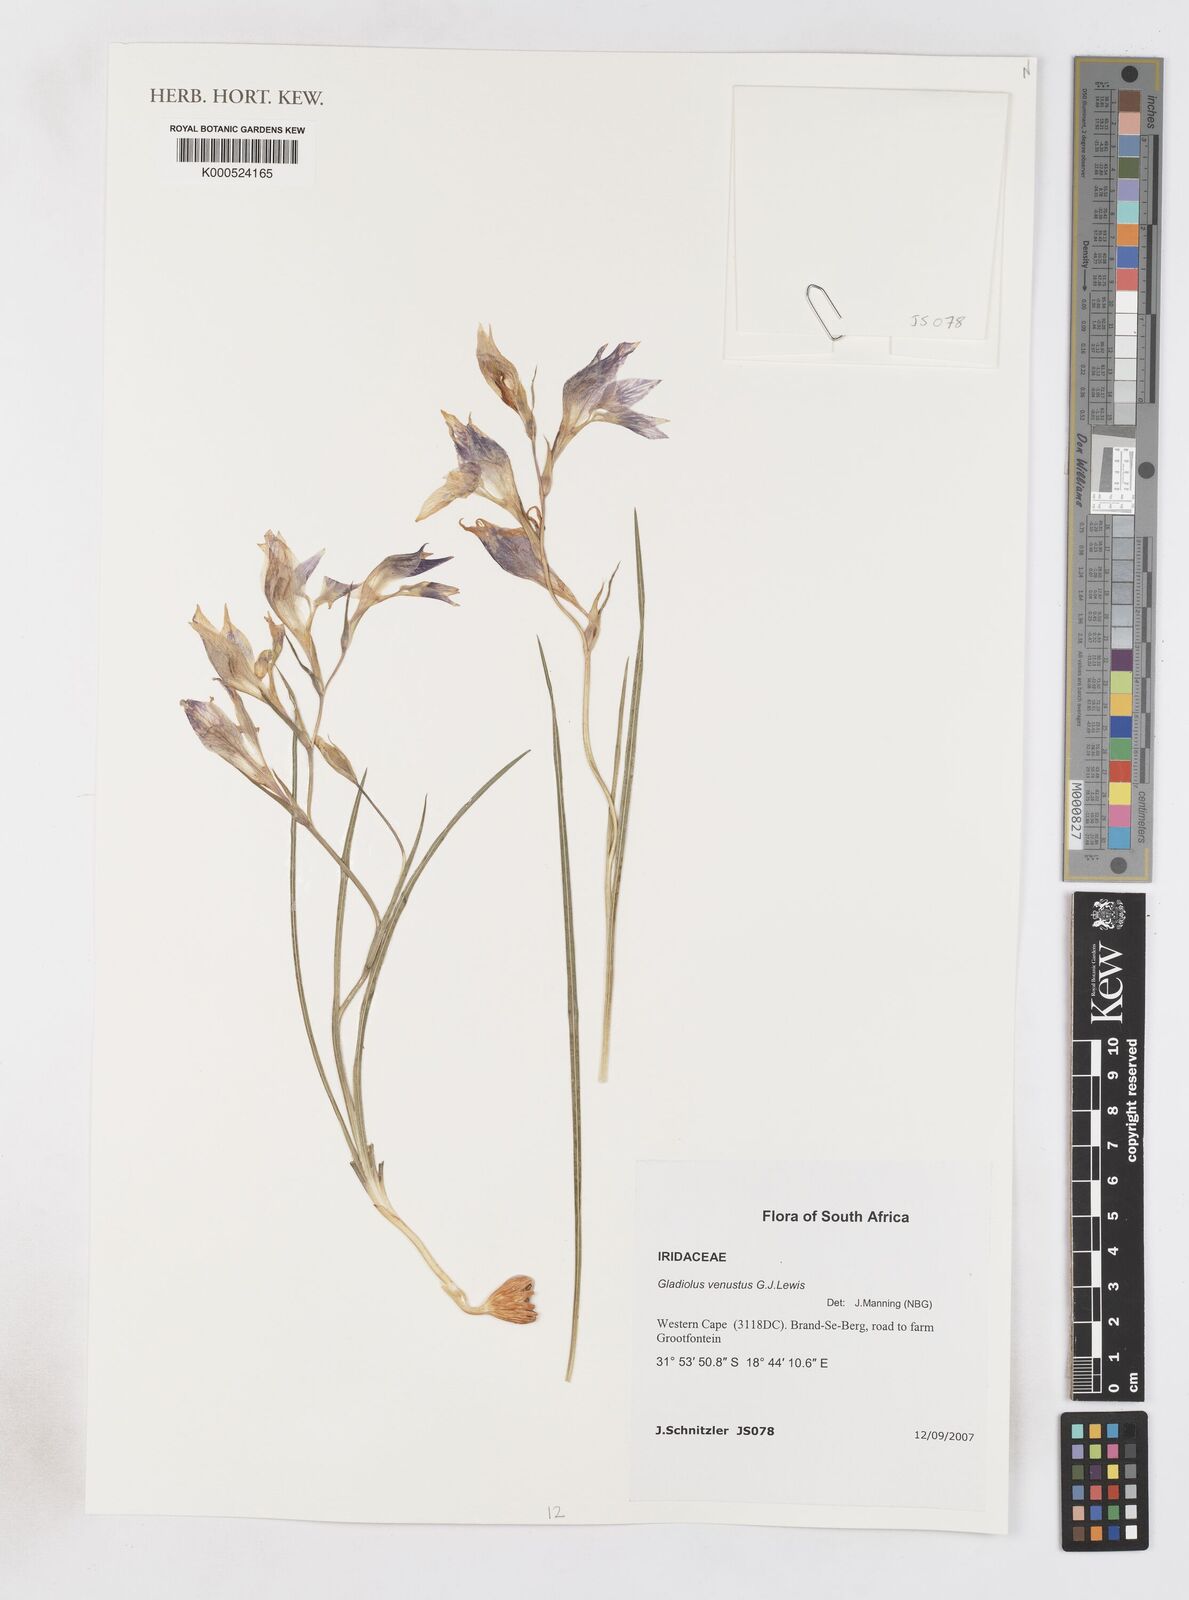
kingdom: Plantae
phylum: Tracheophyta
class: Liliopsida
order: Asparagales
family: Iridaceae
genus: Gladiolus
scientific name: Gladiolus venustus
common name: Purple kalkoentjie
